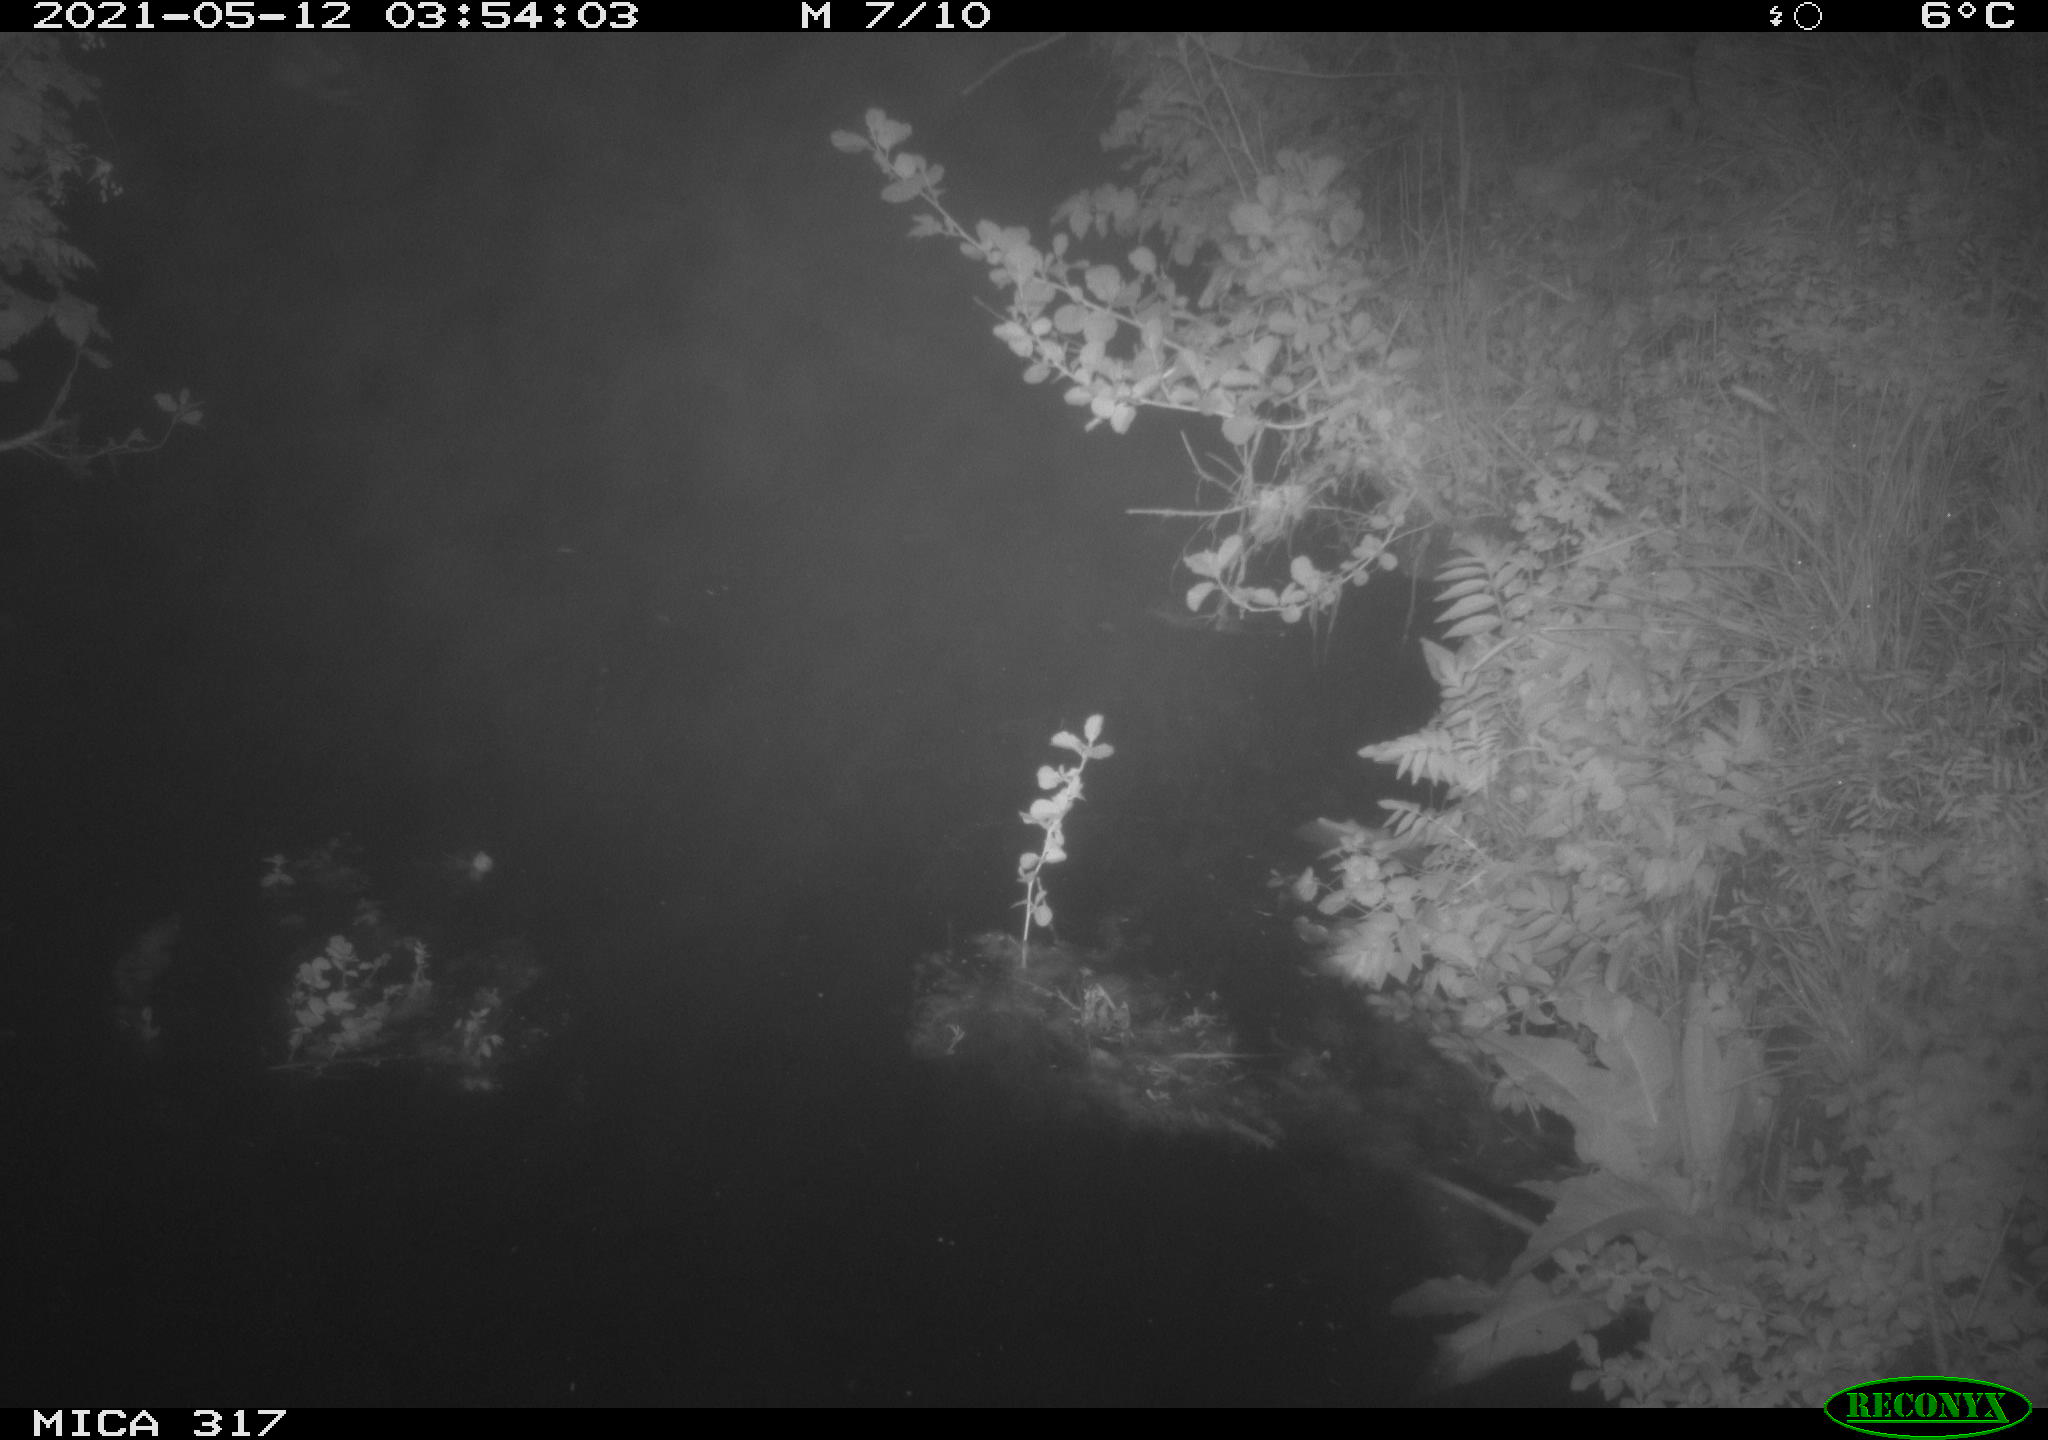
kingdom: Animalia
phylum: Chordata
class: Aves
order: Anseriformes
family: Anatidae
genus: Anas
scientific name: Anas
